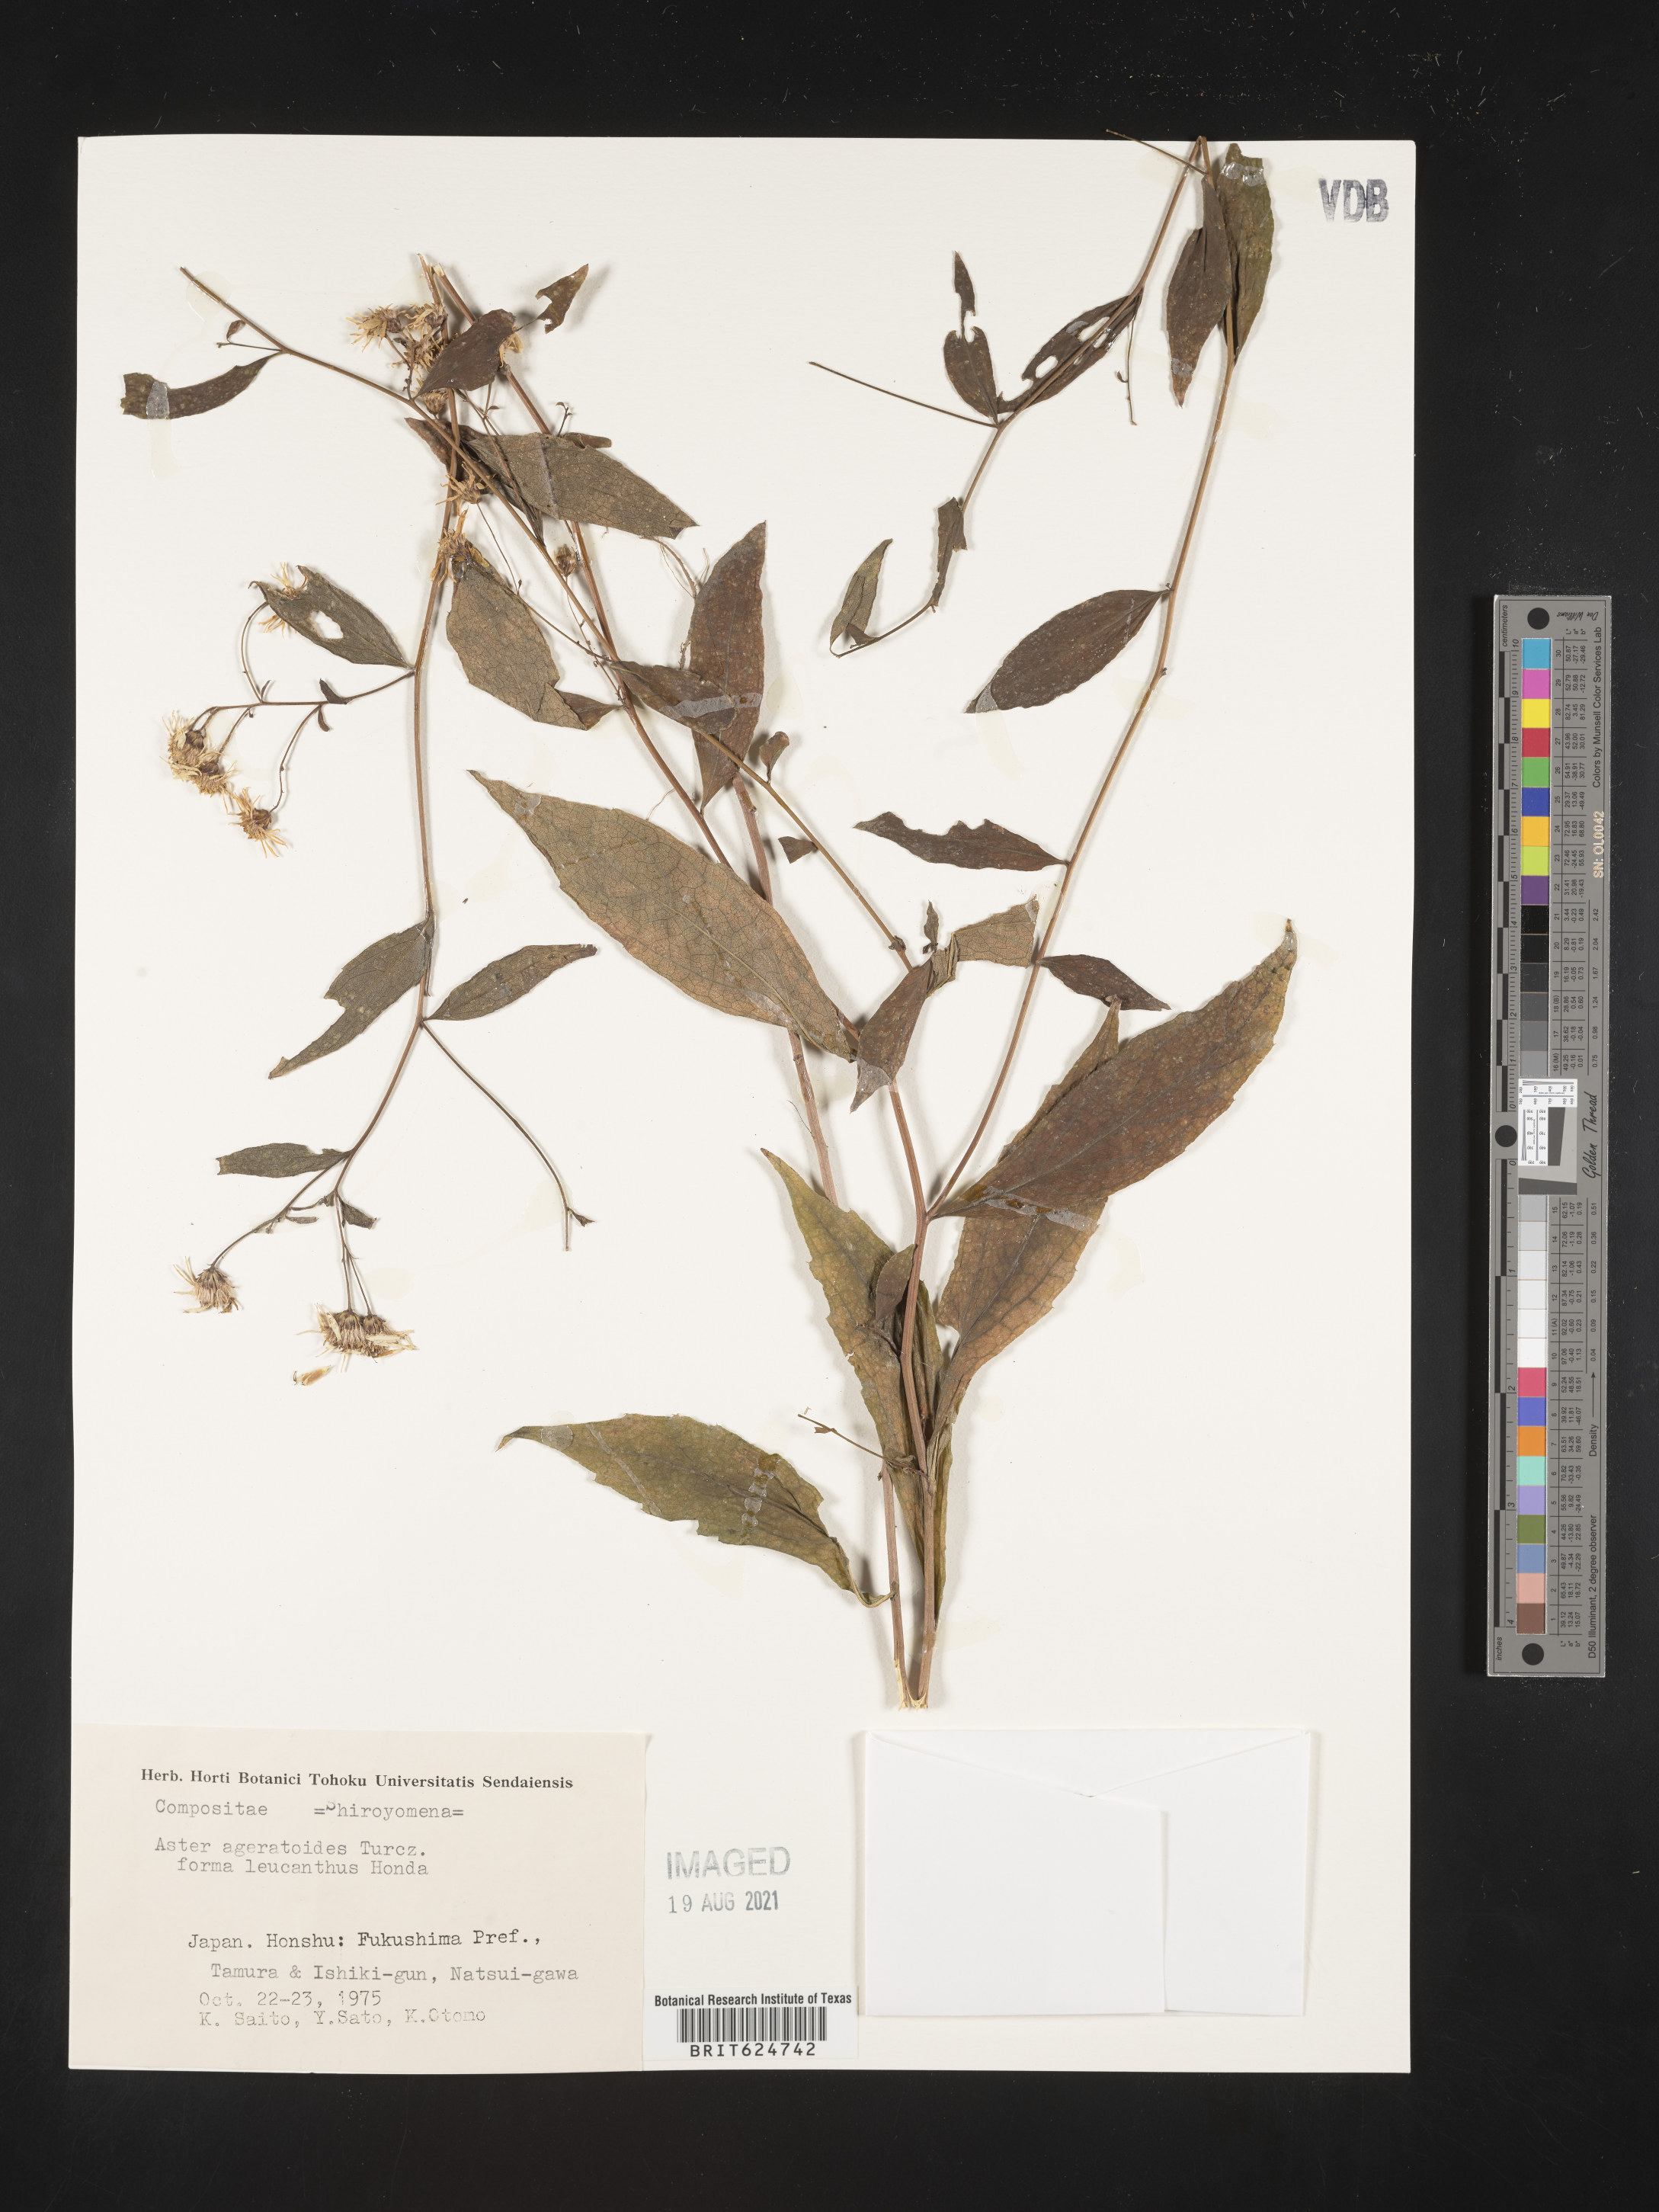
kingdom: Plantae
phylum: Tracheophyta
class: Magnoliopsida
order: Asterales
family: Asteraceae
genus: Aster
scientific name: Aster ageratoides
